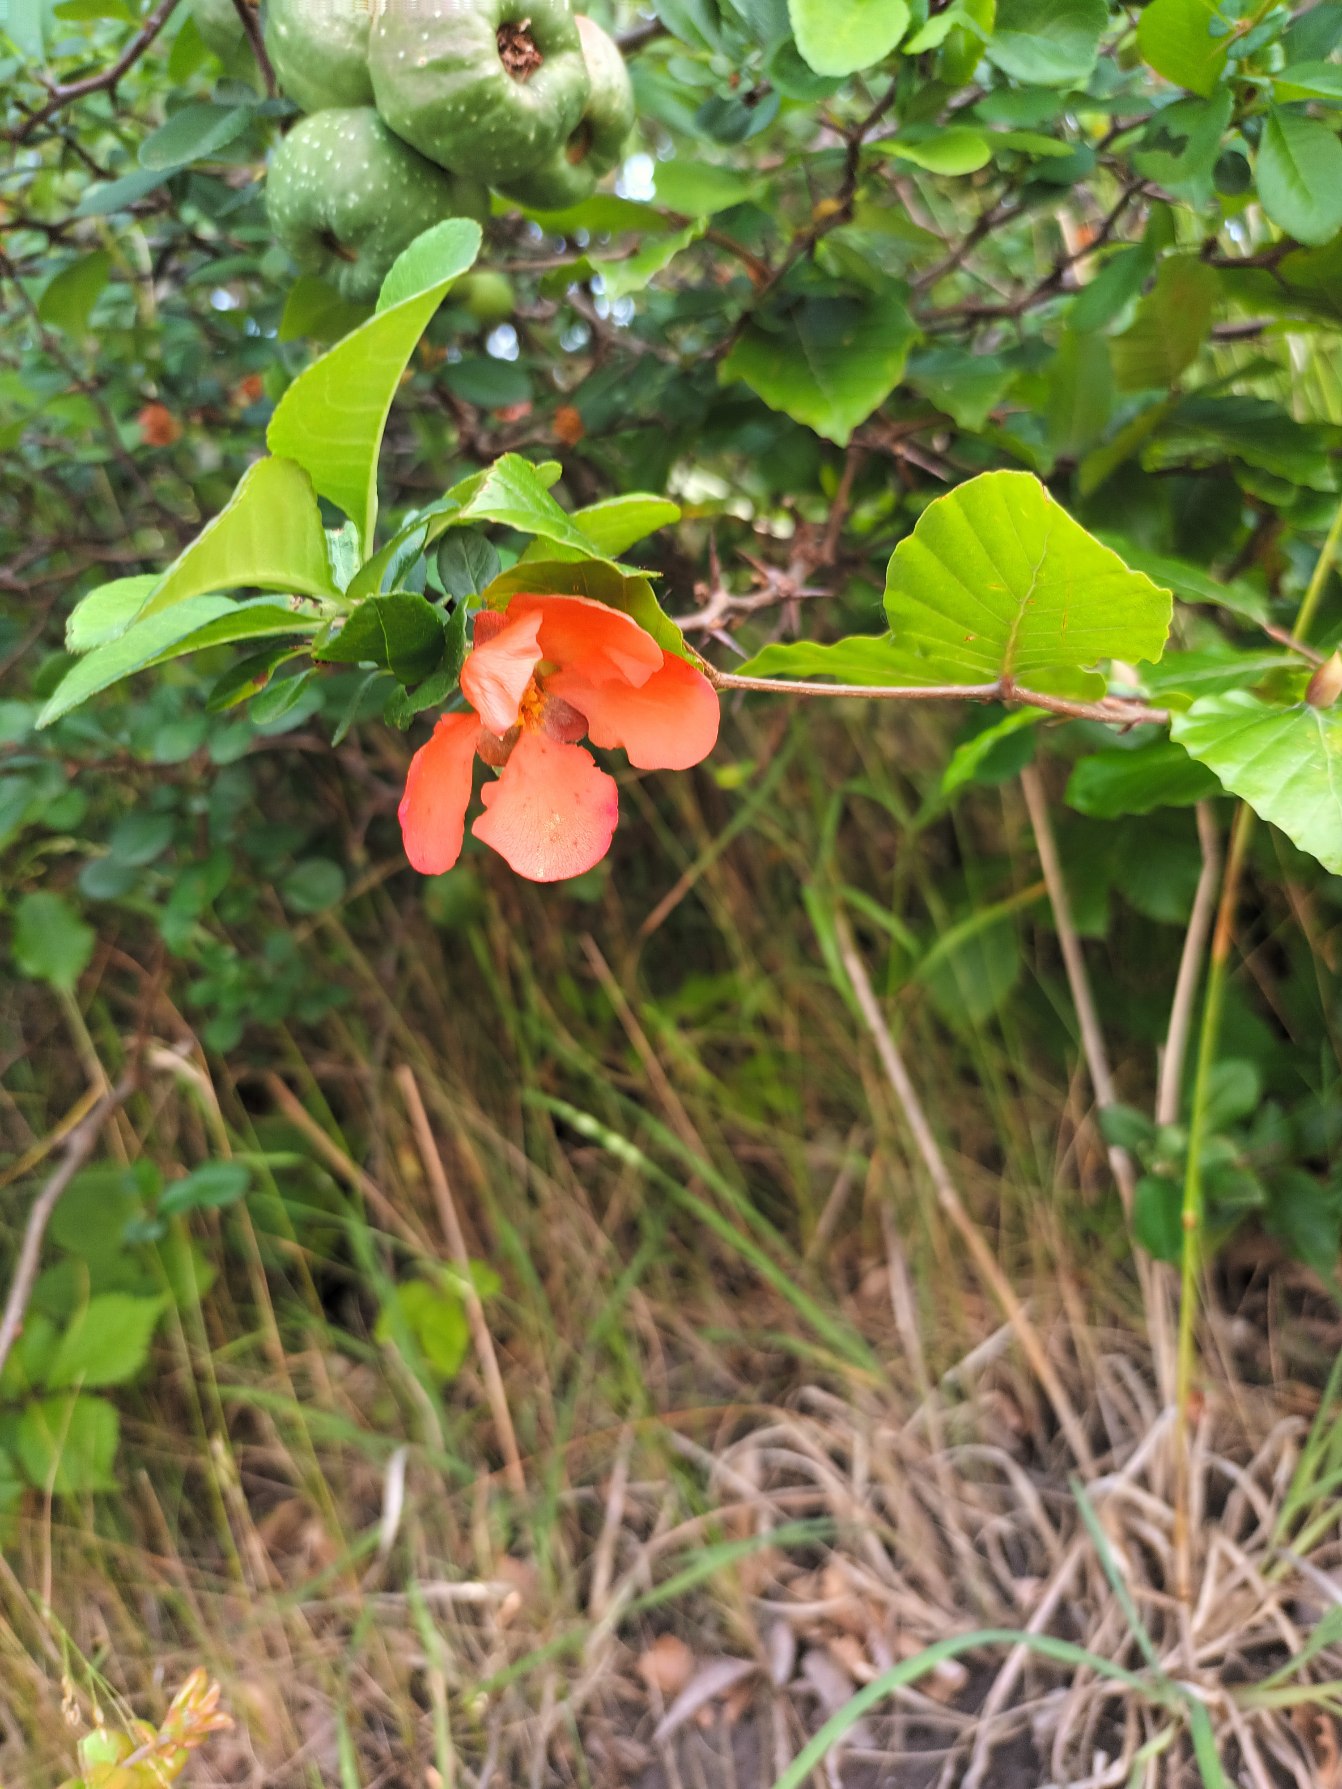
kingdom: Plantae
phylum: Tracheophyta
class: Magnoliopsida
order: Rosales
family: Rosaceae
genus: Chaenomeles
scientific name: Chaenomeles japonica
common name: Lille japankvæde
